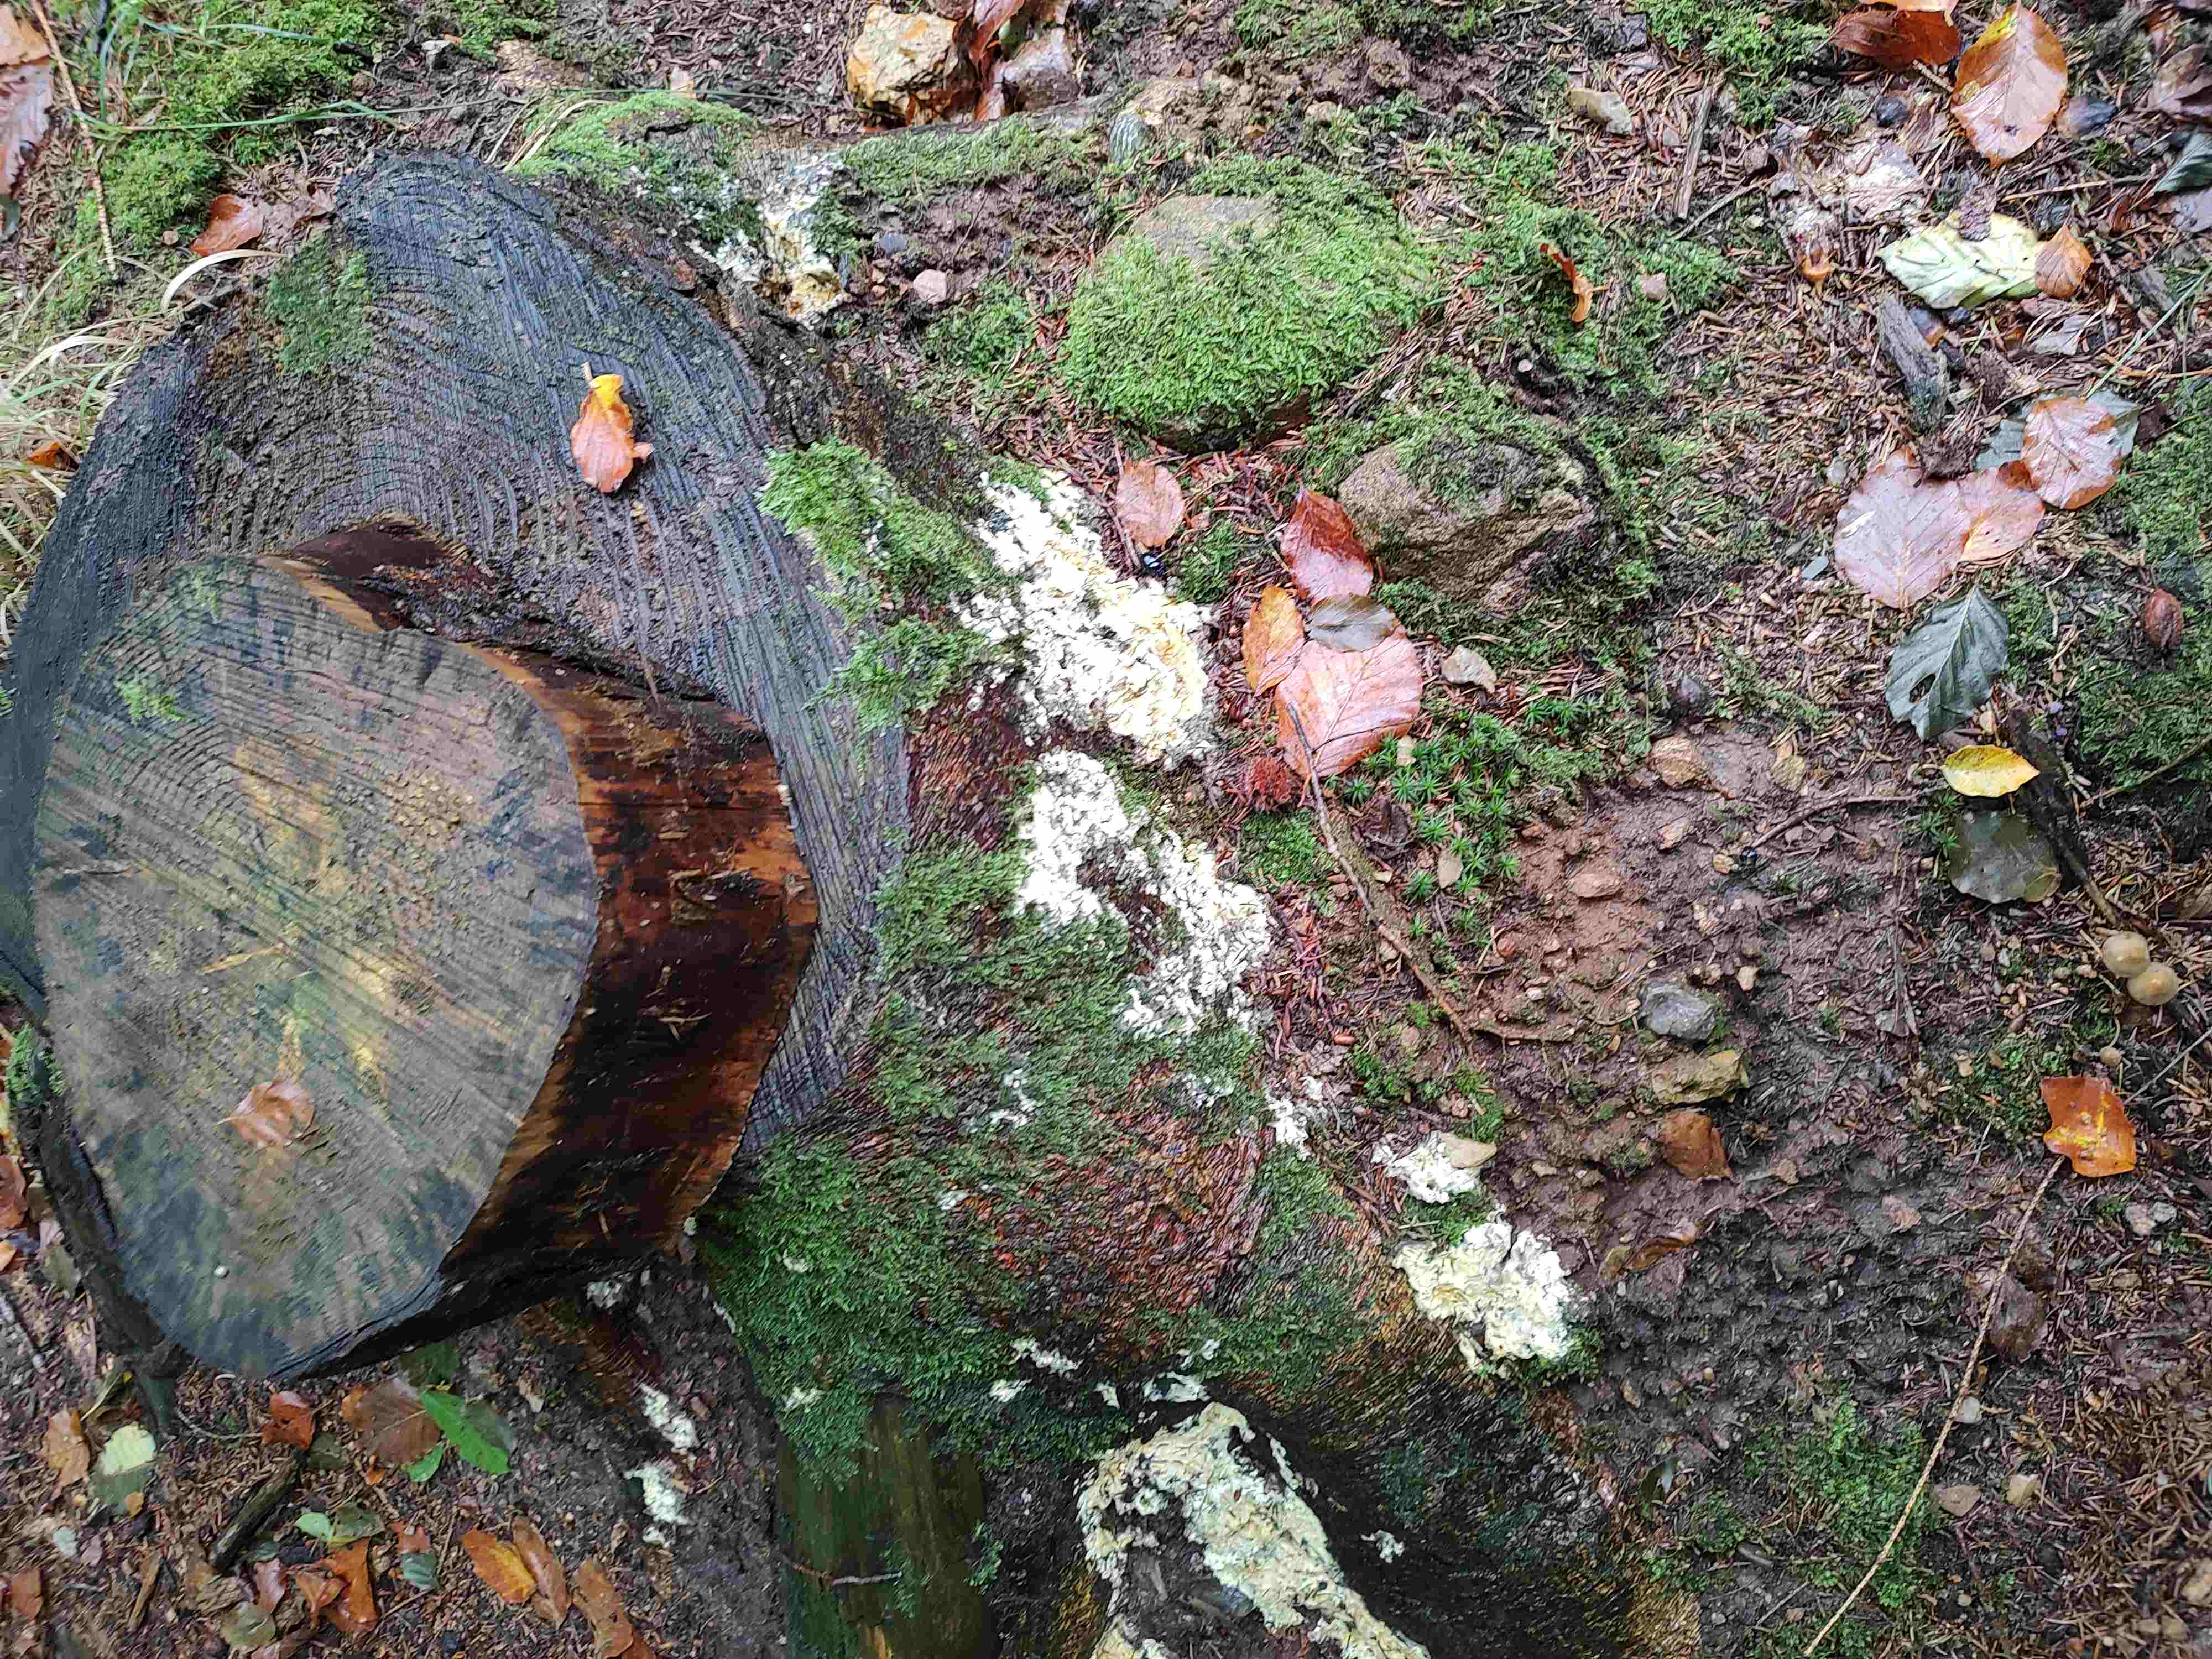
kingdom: Fungi
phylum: Ascomycota
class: Sordariomycetes
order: Hypocreales
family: Hypocreaceae
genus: Trichoderma
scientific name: Trichoderma citrinum
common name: udbredt kødkerne
